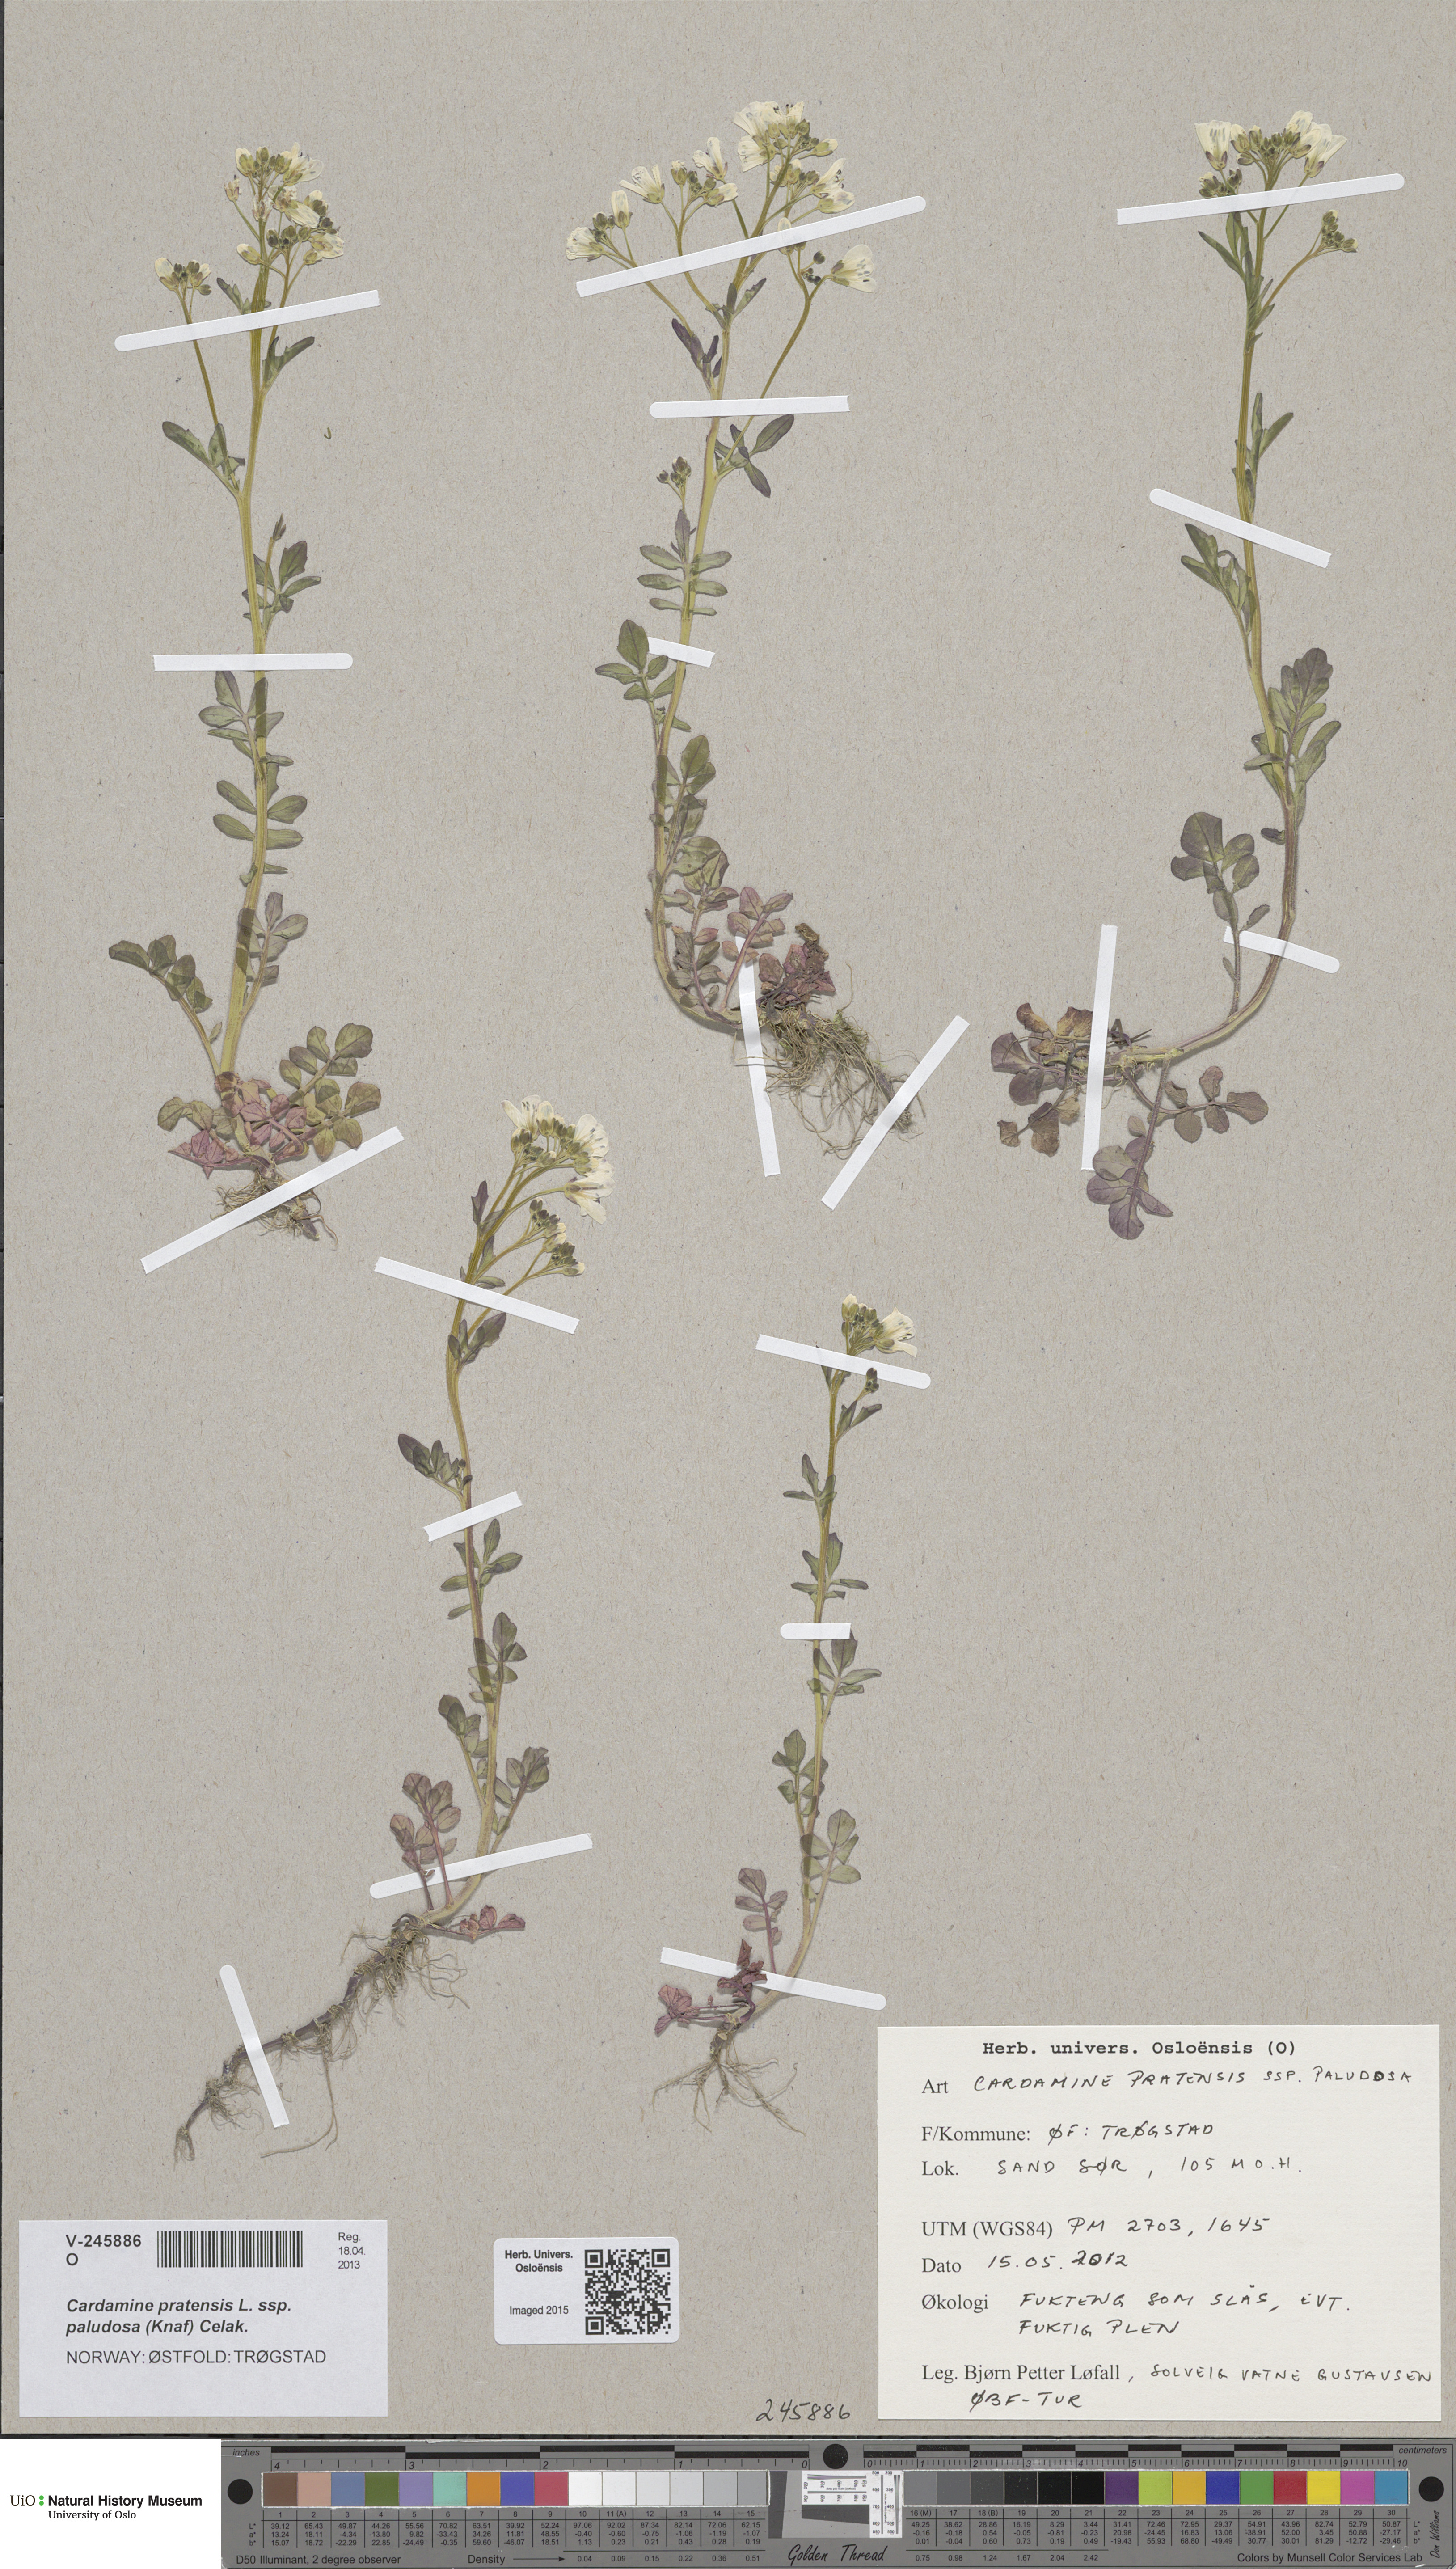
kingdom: Plantae
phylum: Tracheophyta
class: Magnoliopsida
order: Brassicales
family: Brassicaceae
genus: Cardamine
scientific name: Cardamine amara
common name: Large bitter-cress
